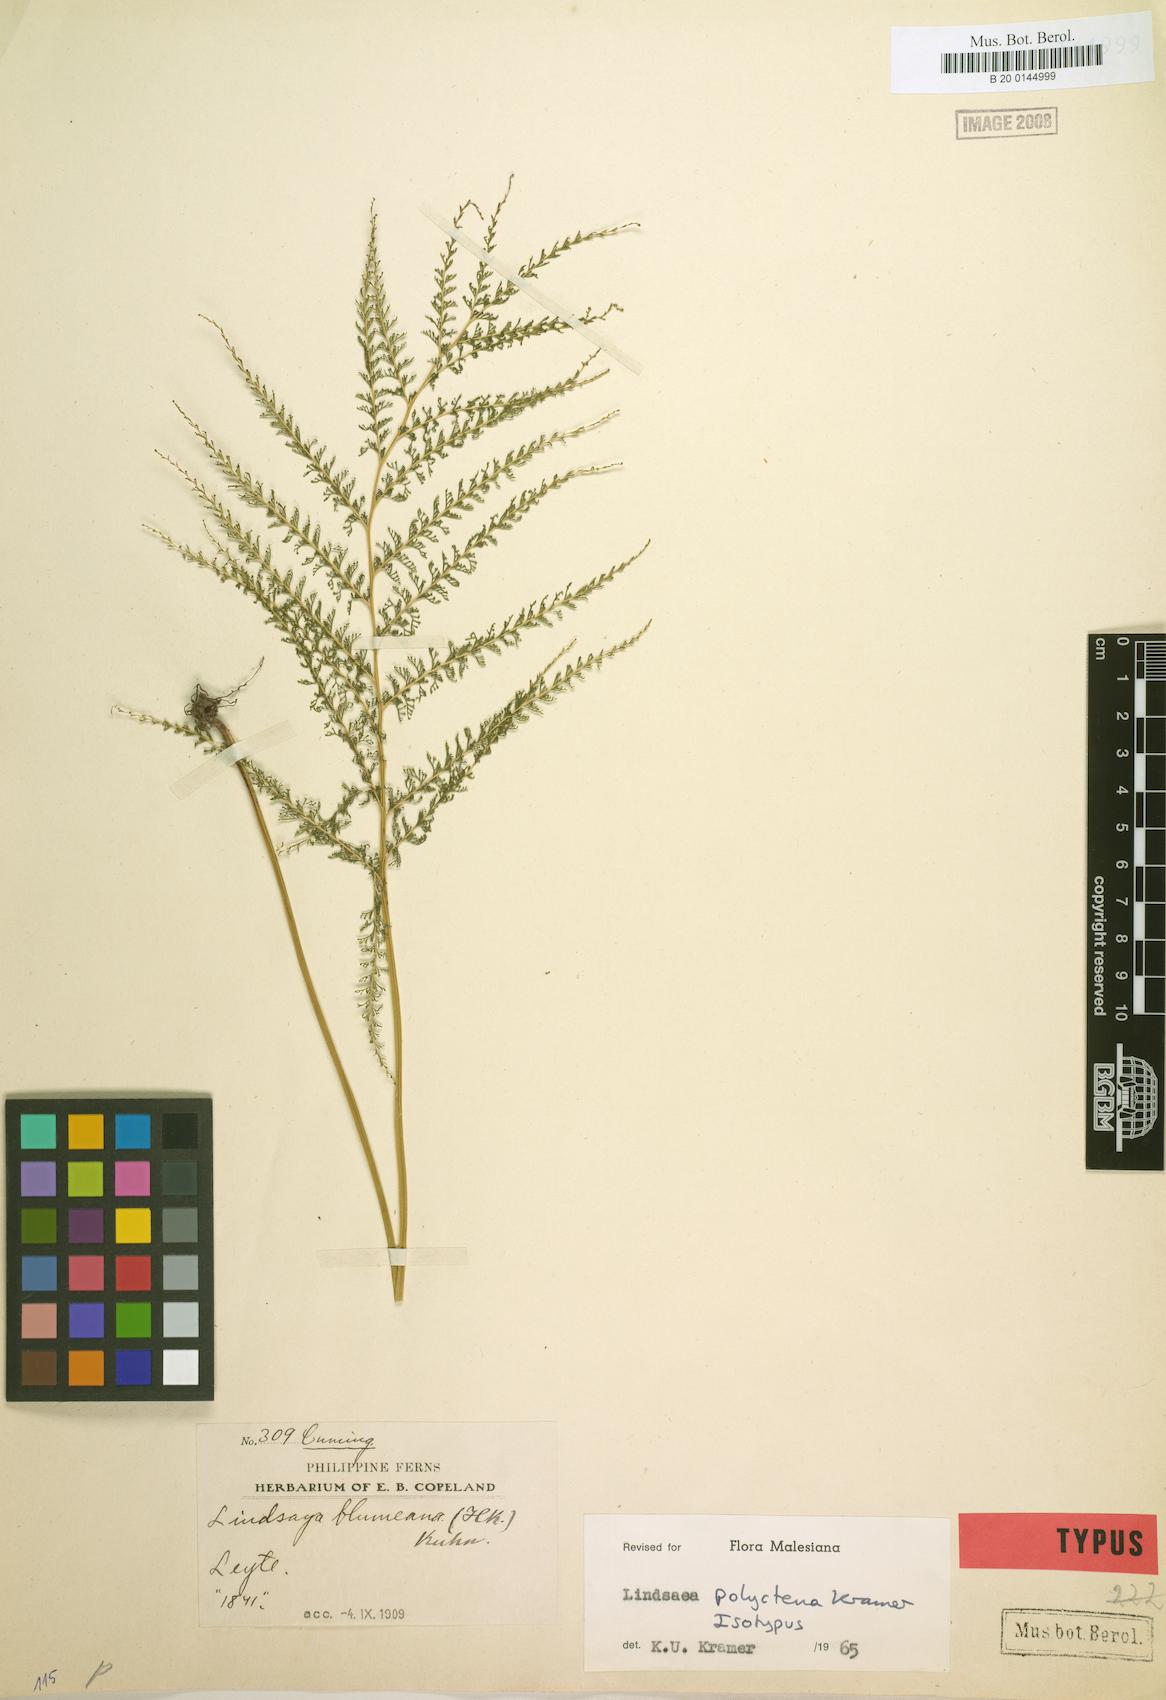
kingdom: Plantae
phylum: Tracheophyta
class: Polypodiopsida
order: Polypodiales
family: Lindsaeaceae
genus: Lindsaea
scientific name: Lindsaea tenuifolia
